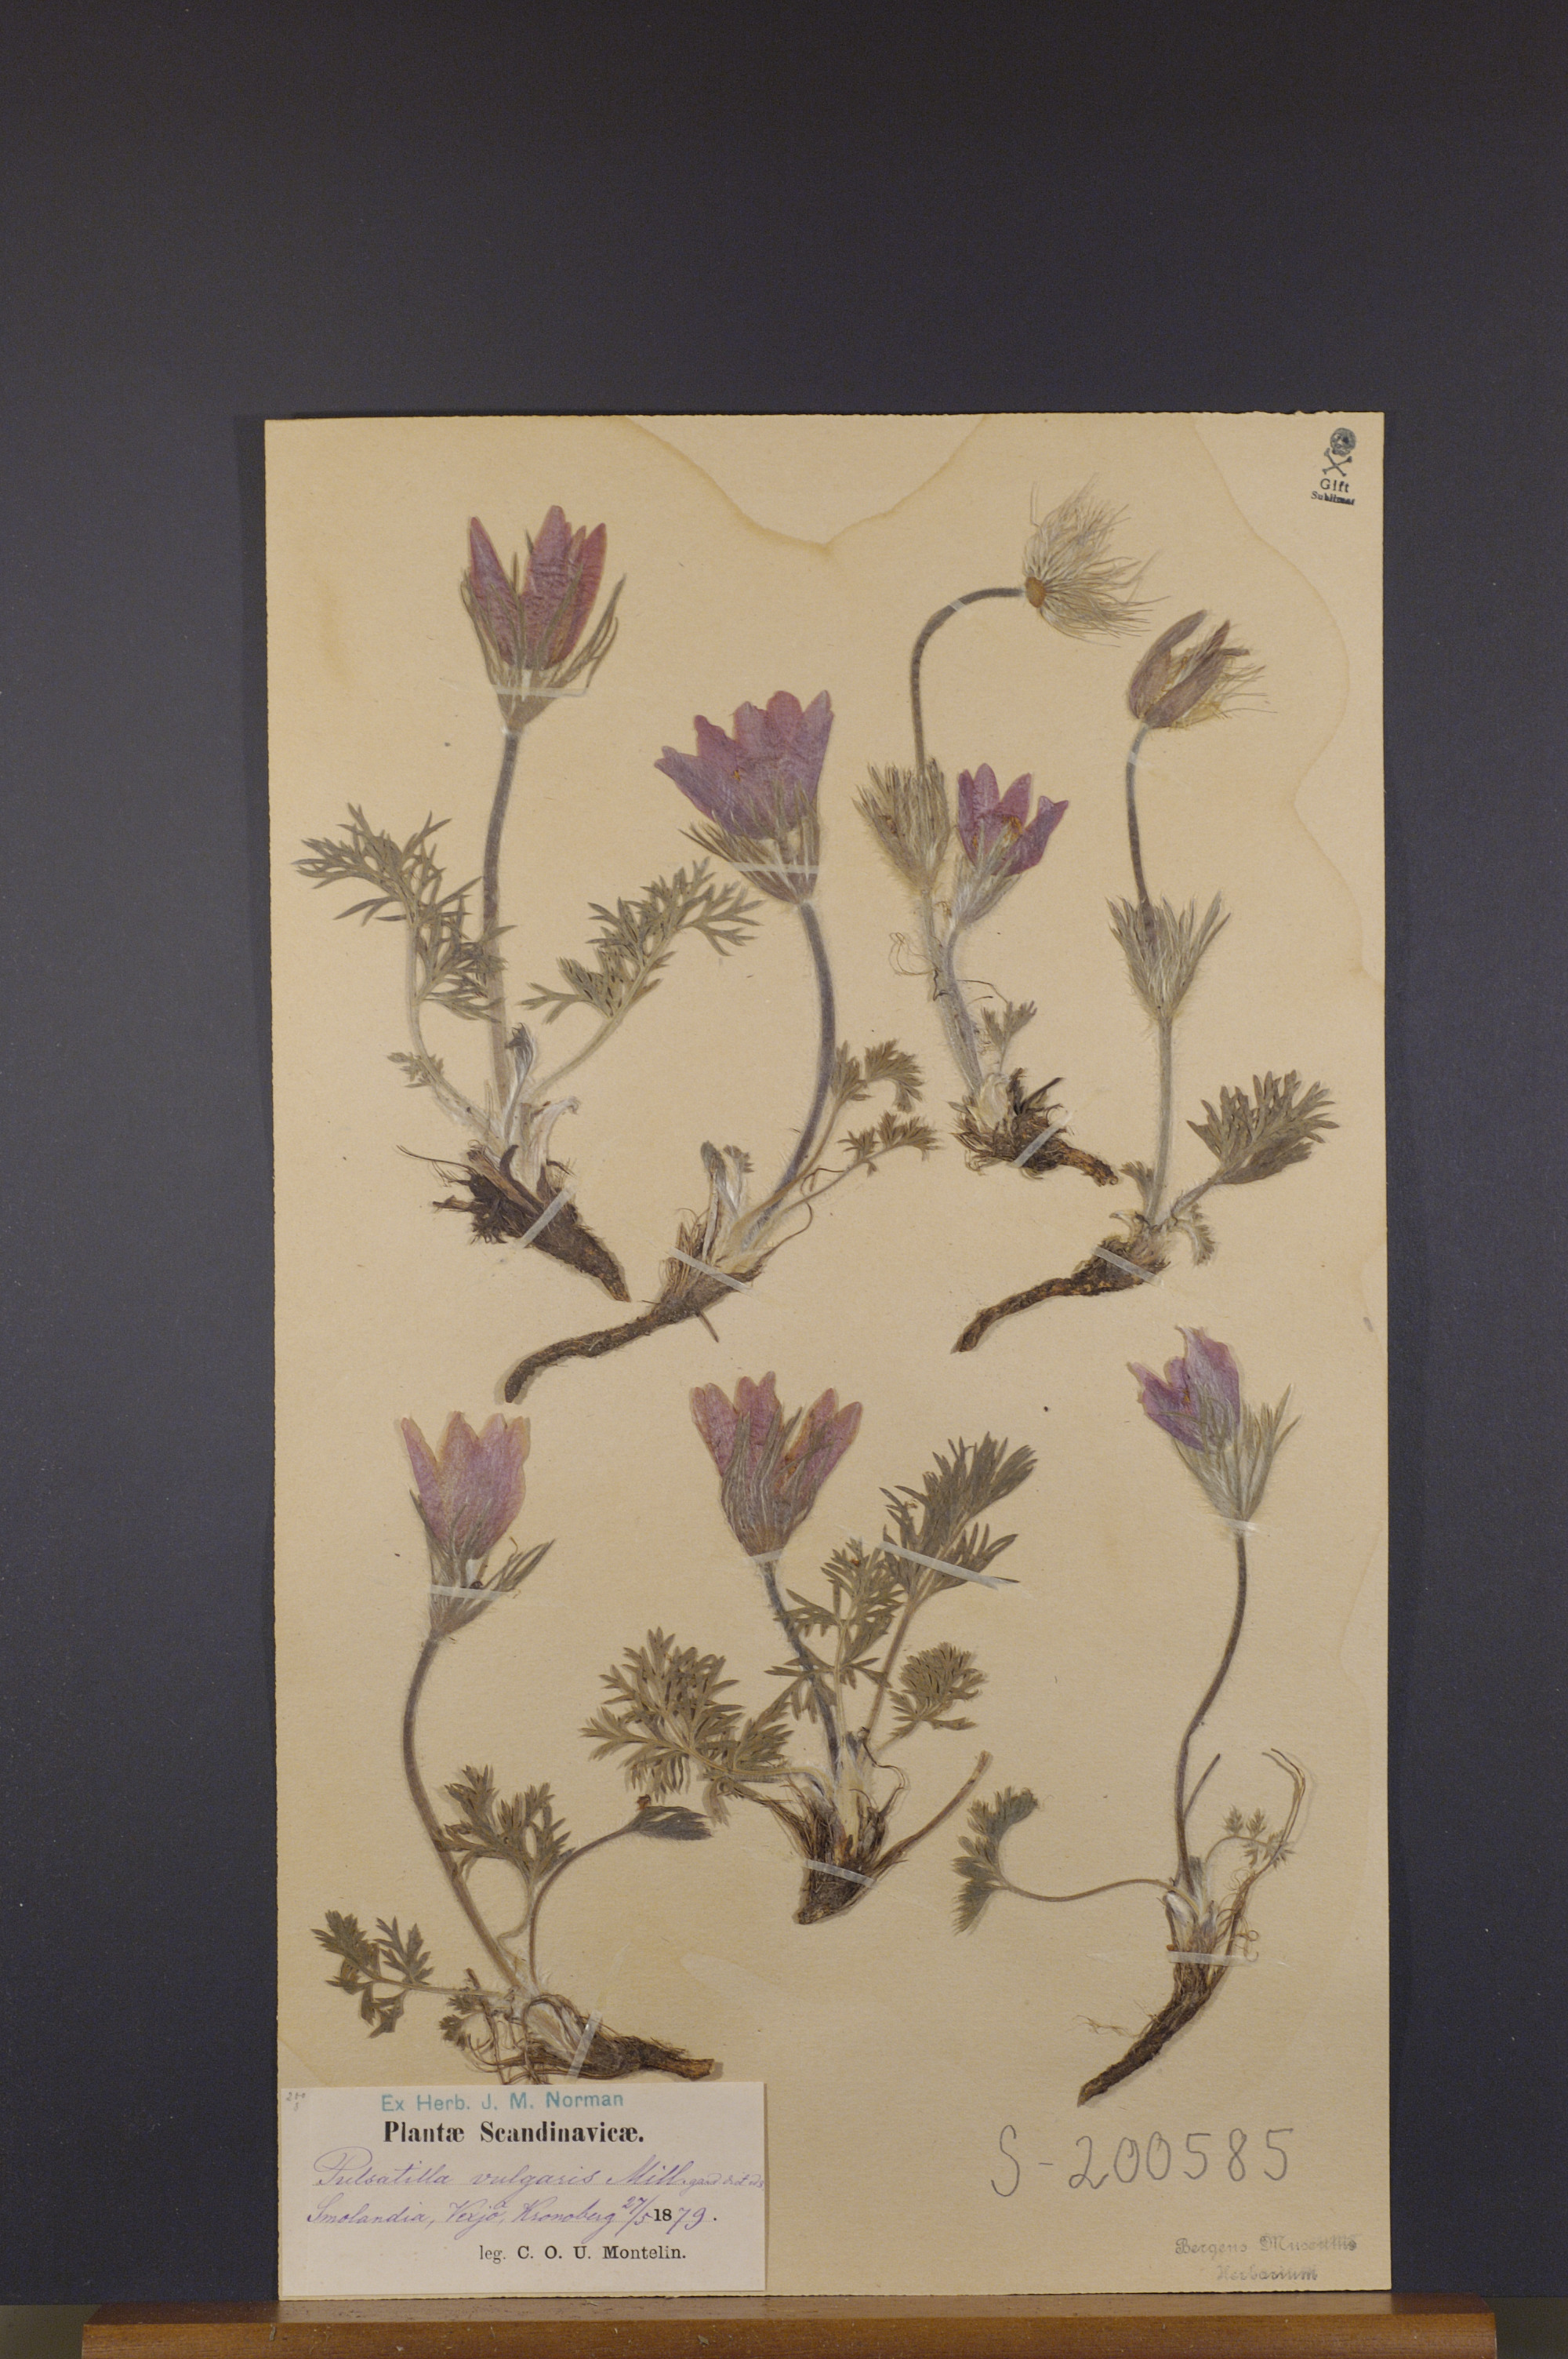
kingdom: Plantae
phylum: Tracheophyta
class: Magnoliopsida
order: Ranunculales
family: Ranunculaceae
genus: Pulsatilla
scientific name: Pulsatilla vulgaris
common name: Pasqueflower
